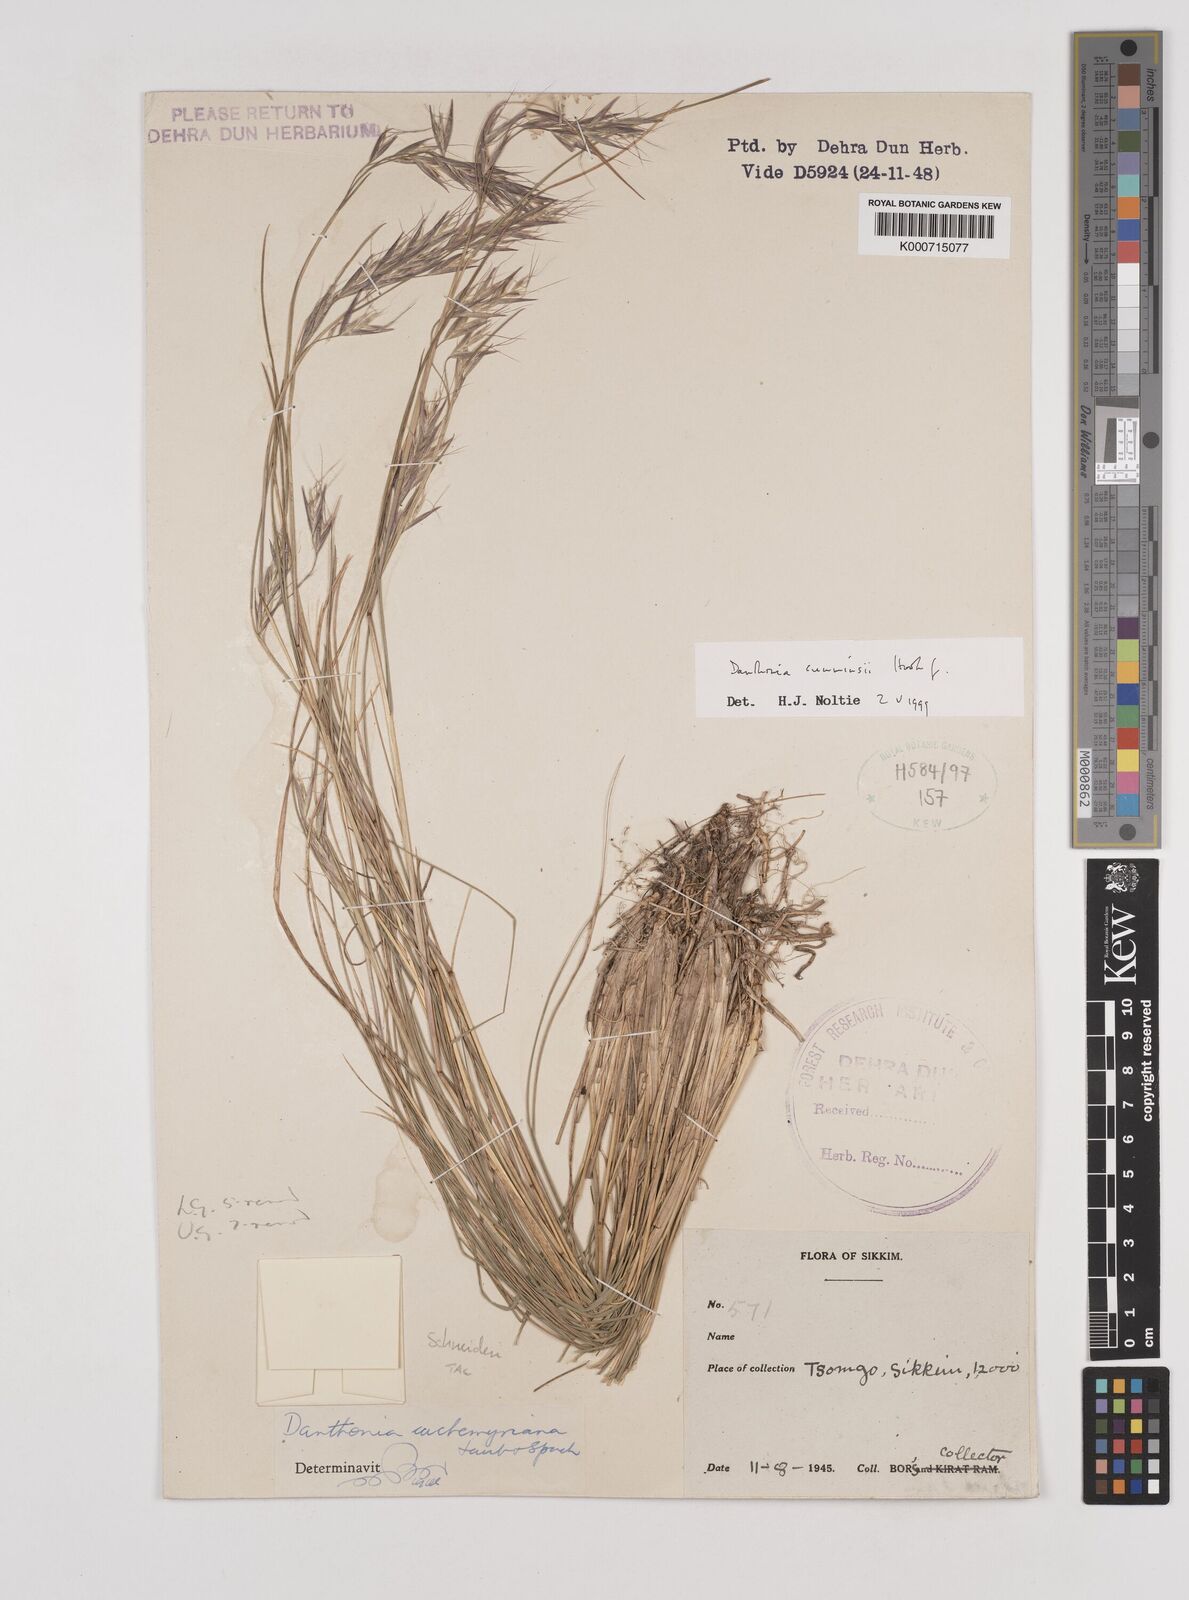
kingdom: Plantae
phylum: Tracheophyta
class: Liliopsida
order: Poales
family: Poaceae
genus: Rytidosperma
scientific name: Rytidosperma
